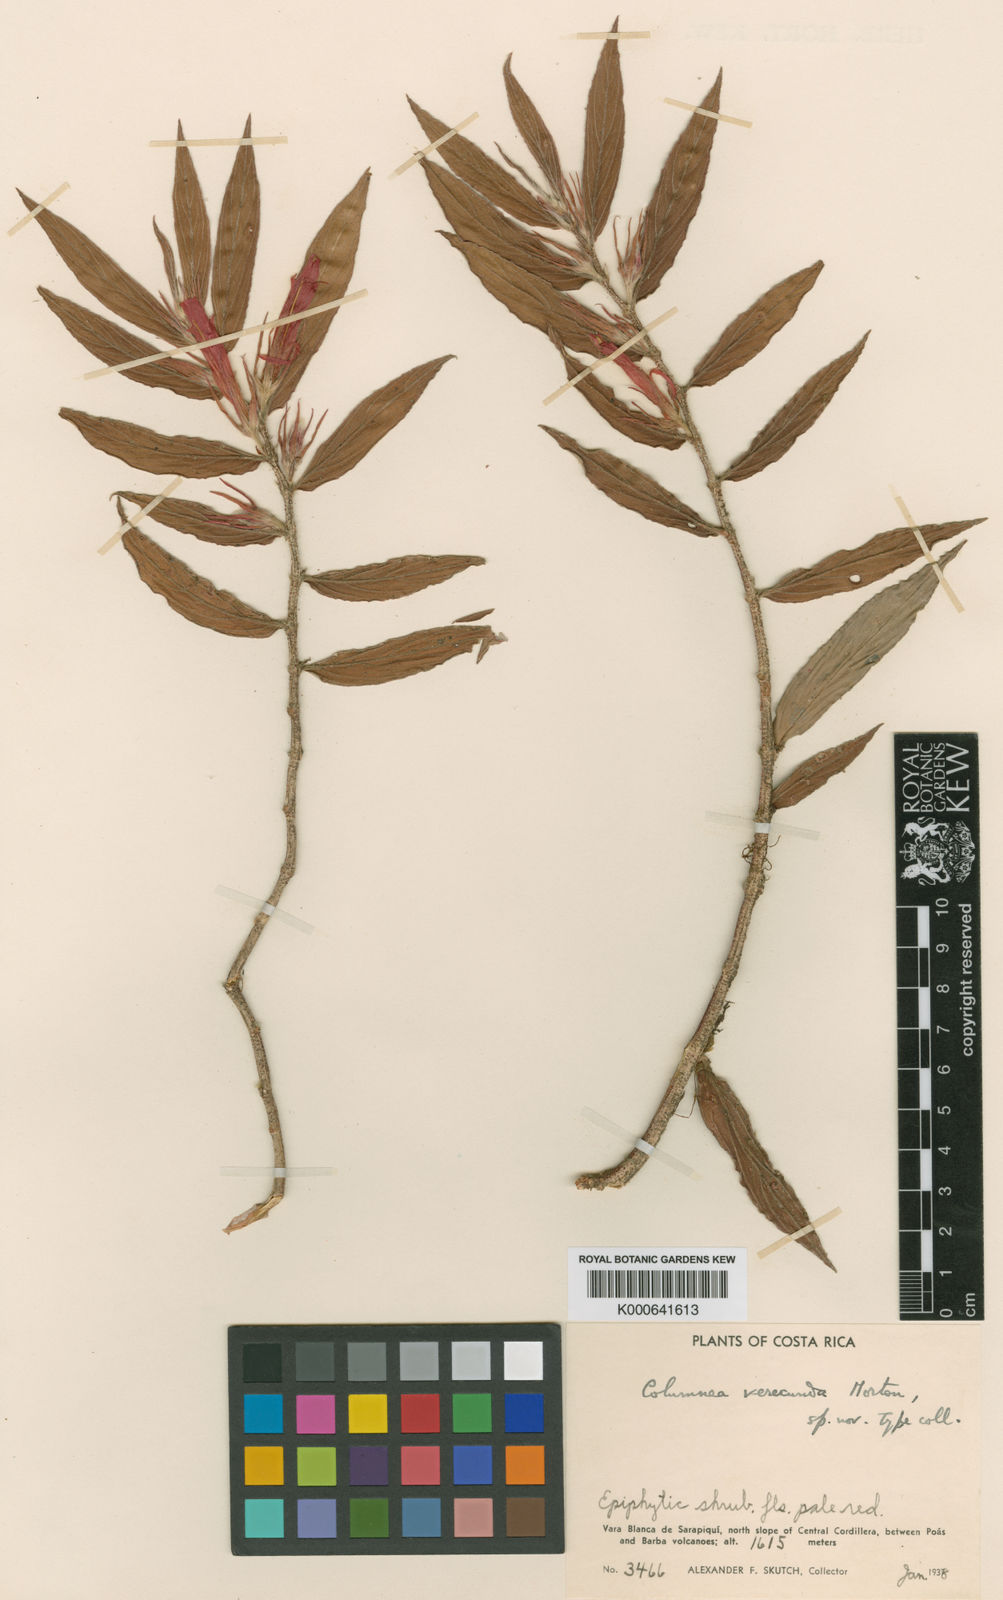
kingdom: Plantae
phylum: Tracheophyta
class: Magnoliopsida
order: Lamiales
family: Gesneriaceae
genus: Columnea
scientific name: Columnea verecunda
